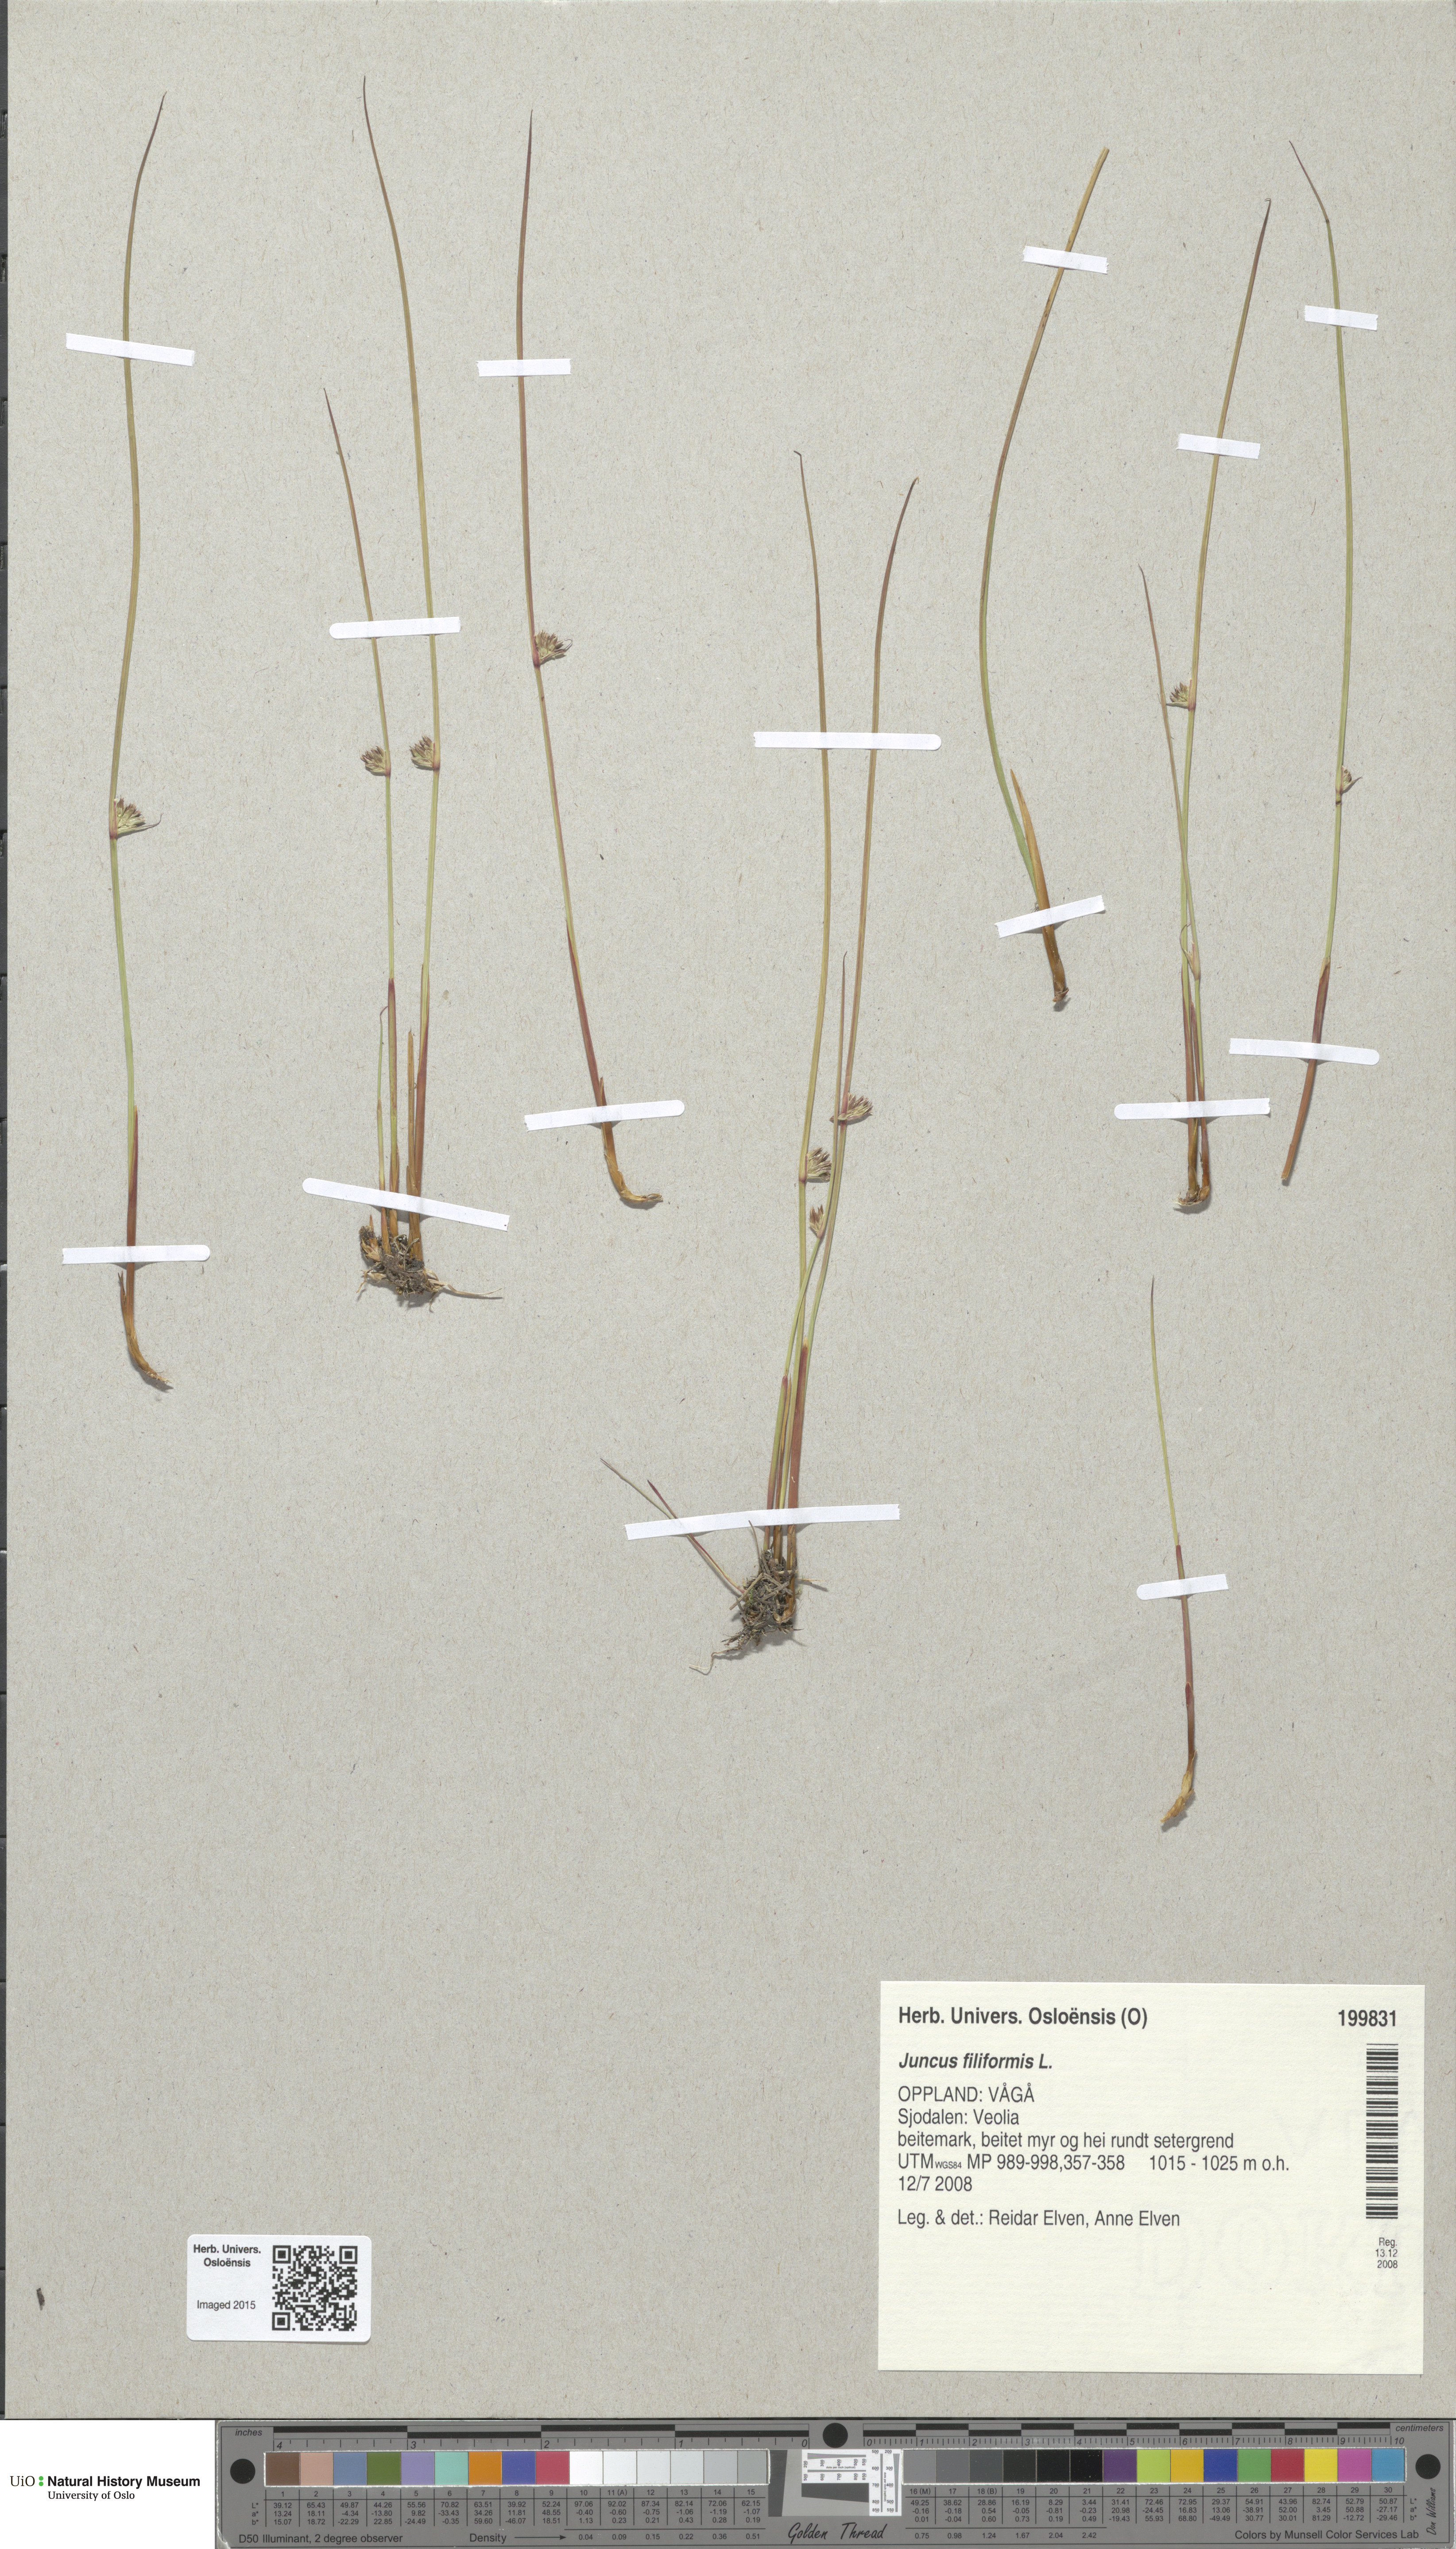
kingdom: Plantae
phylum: Tracheophyta
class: Liliopsida
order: Poales
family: Juncaceae
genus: Juncus
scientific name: Juncus filiformis
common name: Thread rush
